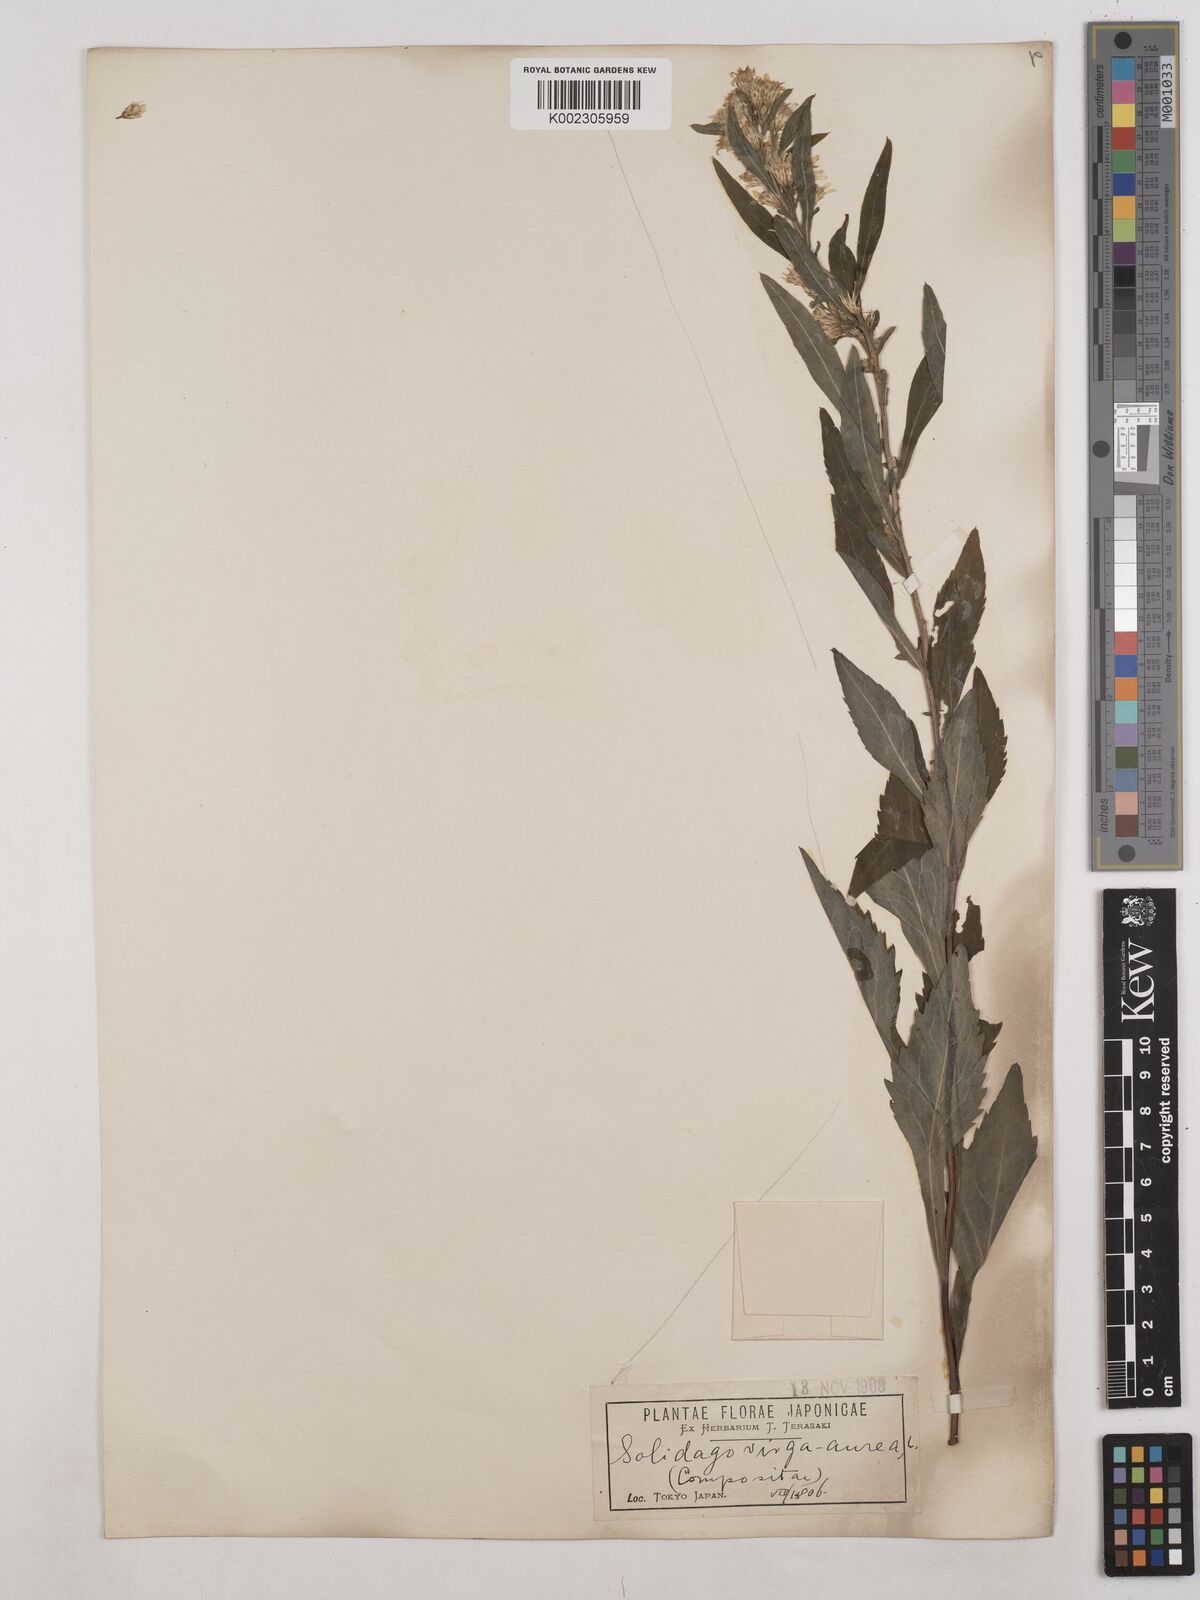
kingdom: Plantae
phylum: Tracheophyta
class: Magnoliopsida
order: Asterales
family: Asteraceae
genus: Solidago
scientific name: Solidago virgaurea
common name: Goldenrod
